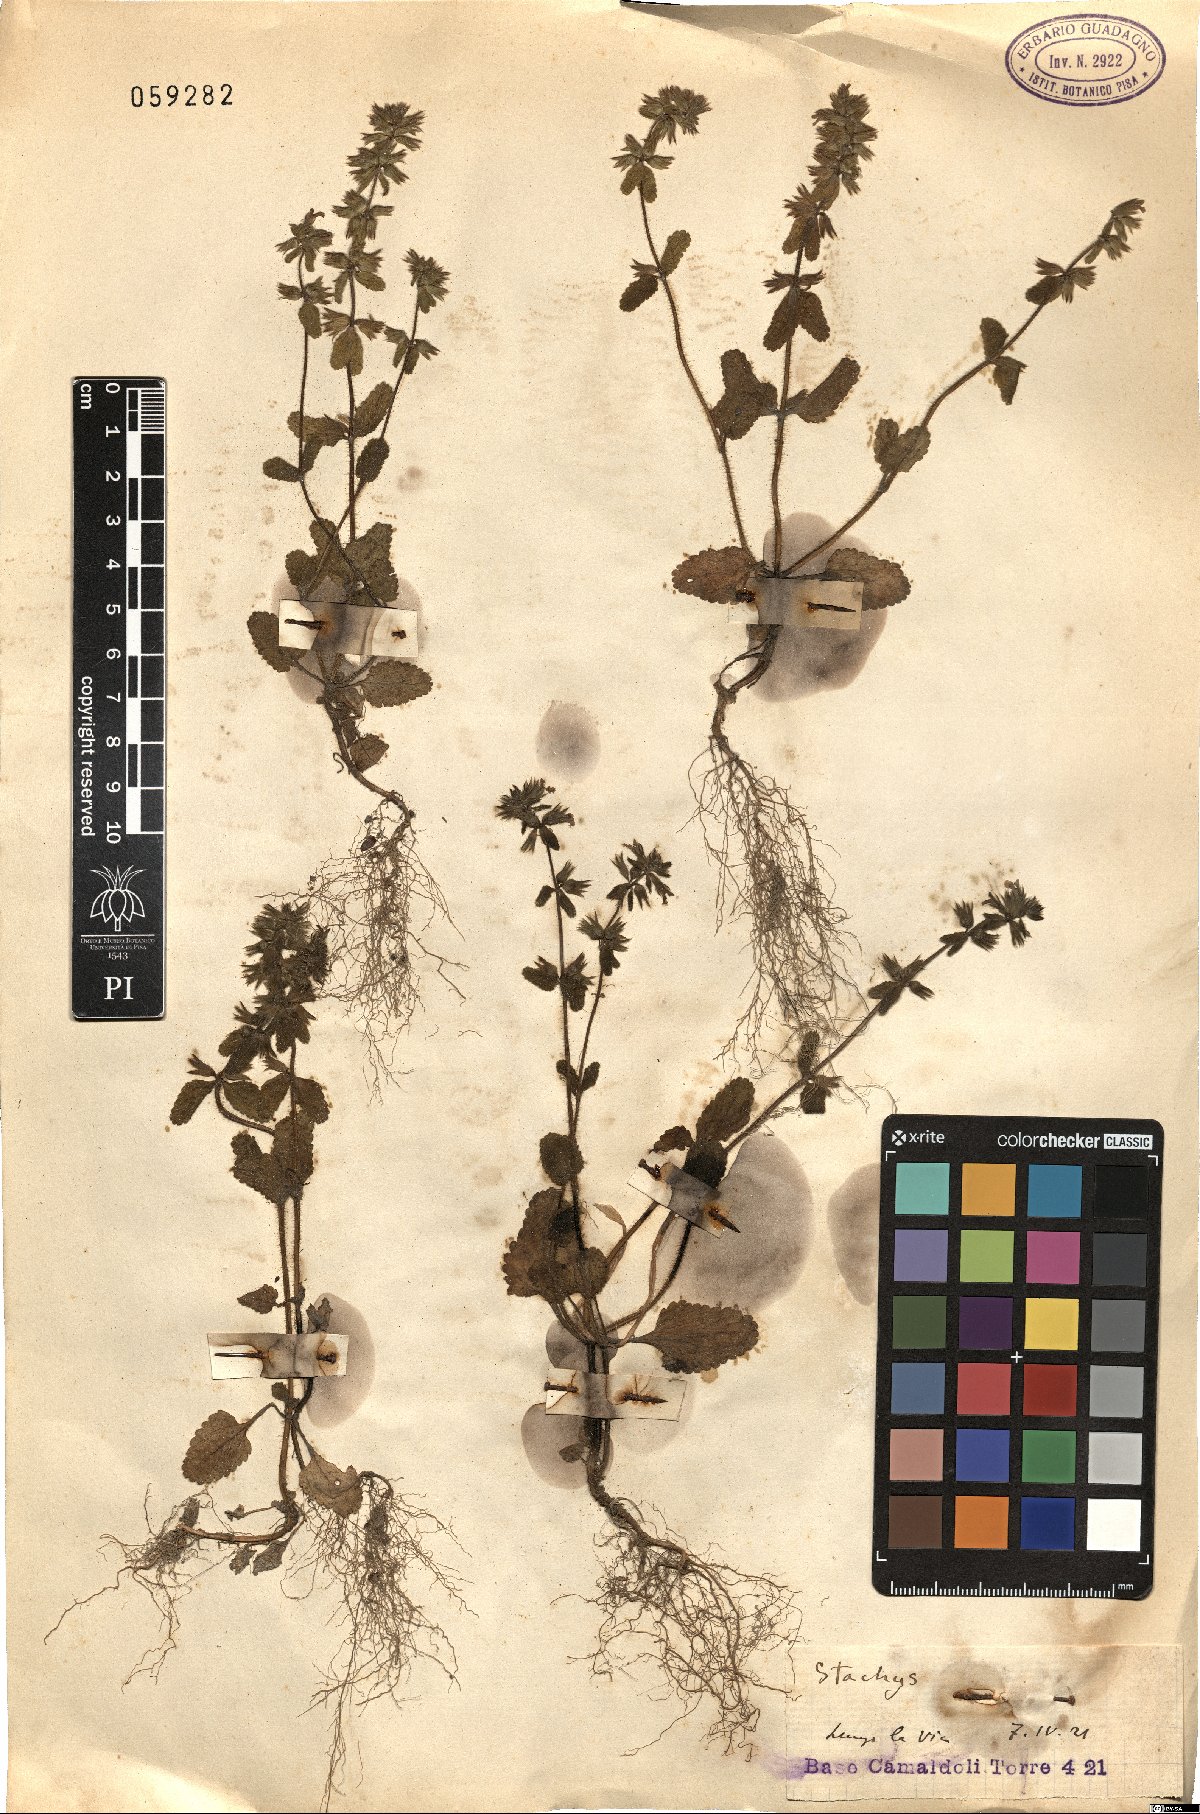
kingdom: Plantae
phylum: Tracheophyta
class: Magnoliopsida
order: Lamiales
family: Lamiaceae
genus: Stachys
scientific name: Stachys
